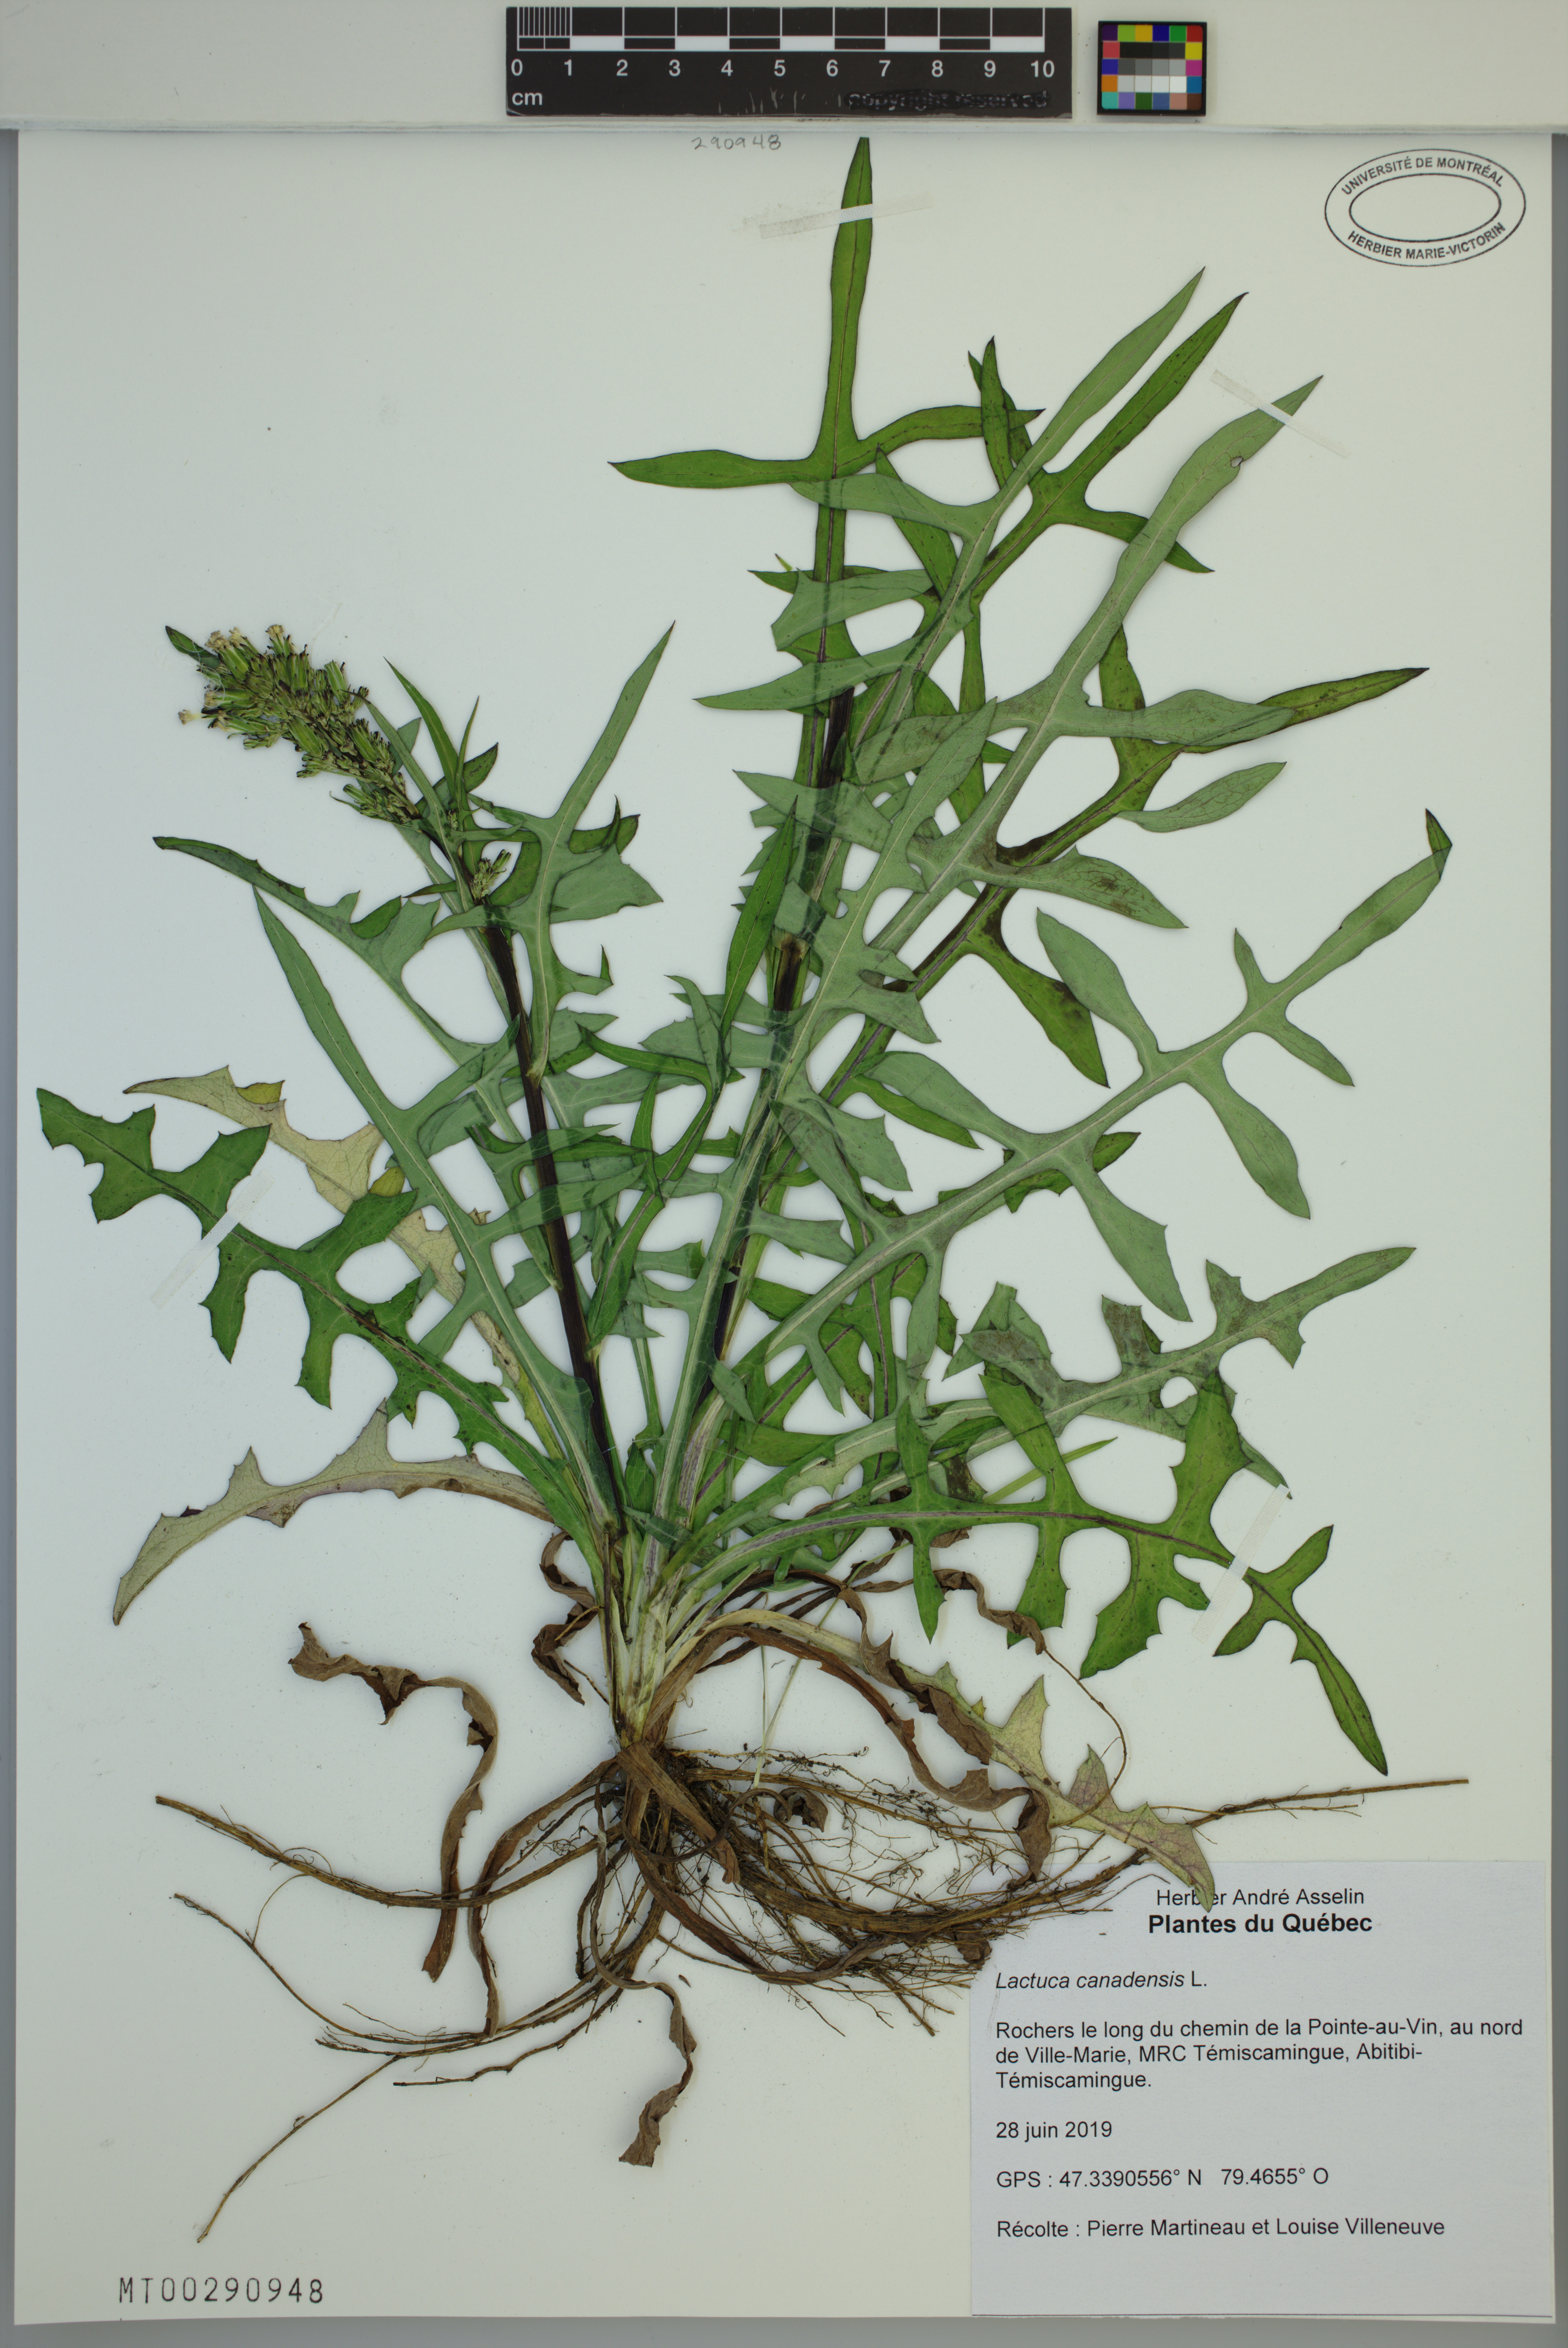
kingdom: Plantae
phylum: Tracheophyta
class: Magnoliopsida
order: Asterales
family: Asteraceae
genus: Lactuca
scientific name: Lactuca canadensis
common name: Canada lettuce
